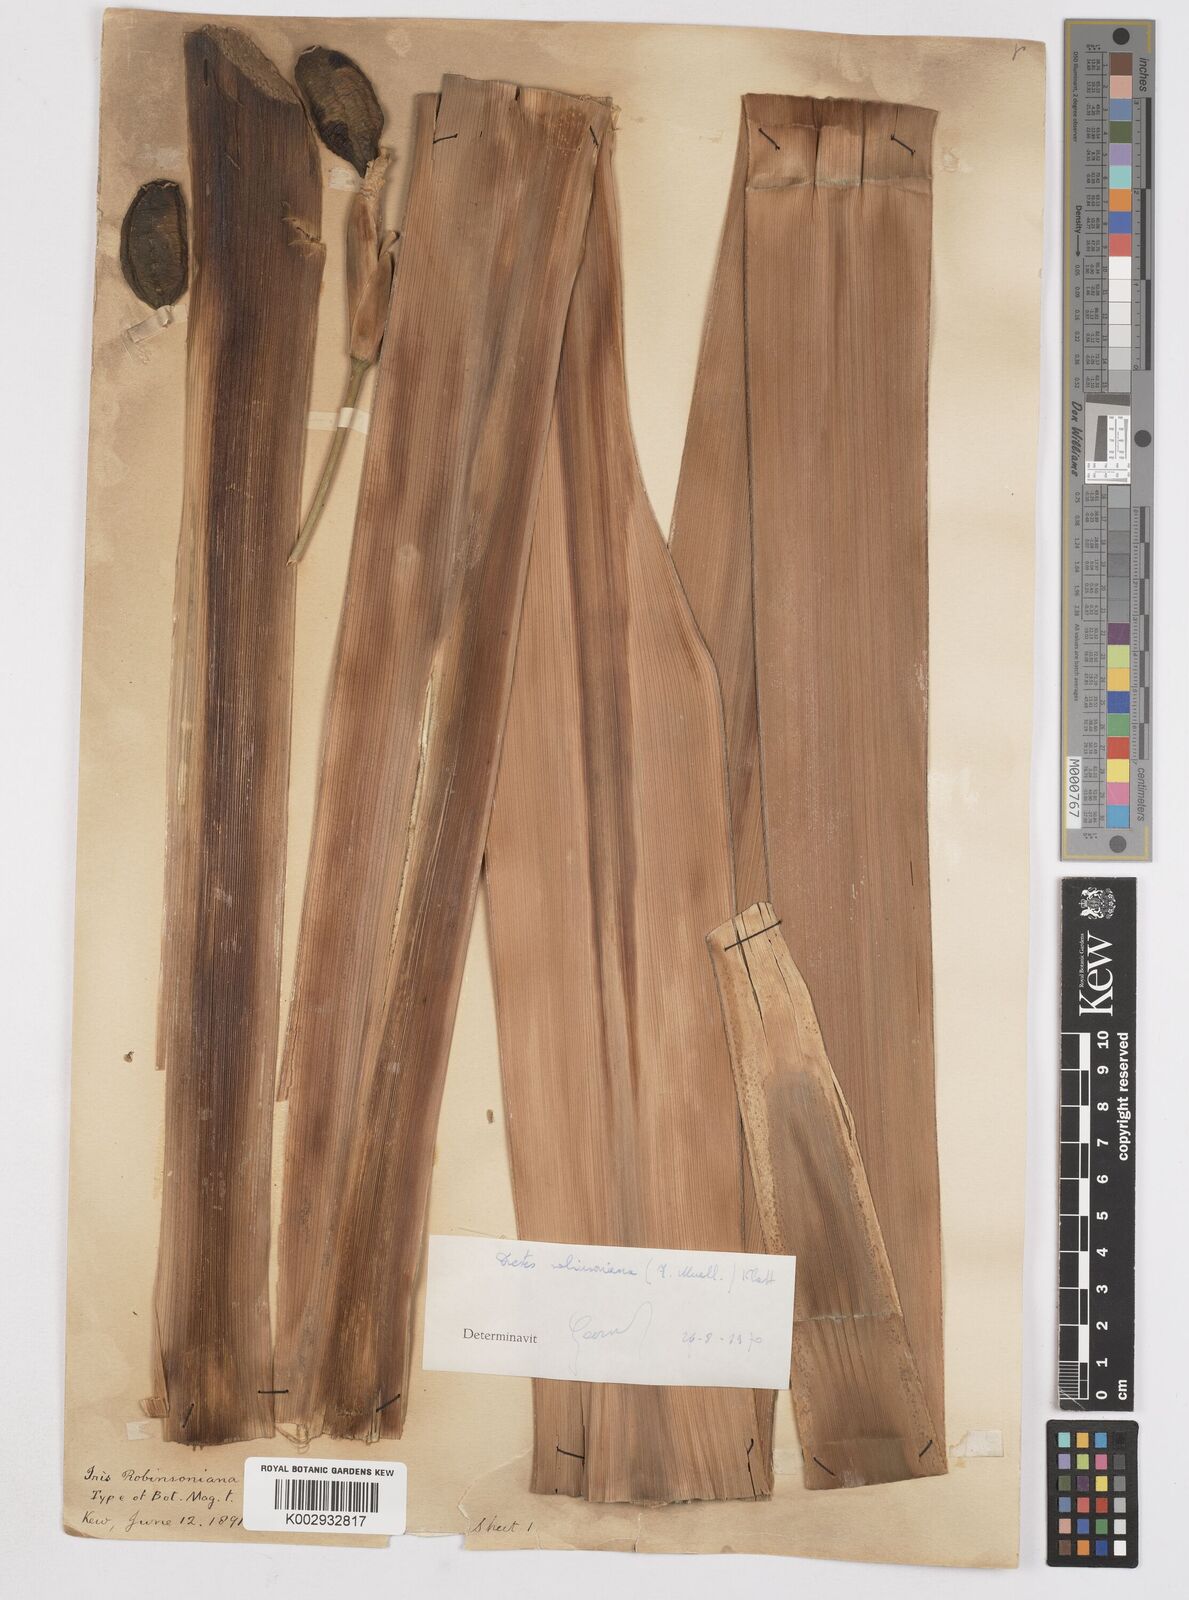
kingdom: Plantae
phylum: Tracheophyta
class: Liliopsida
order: Asparagales
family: Iridaceae
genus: Dietes
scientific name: Dietes robinsoniana
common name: Wedding-lily
